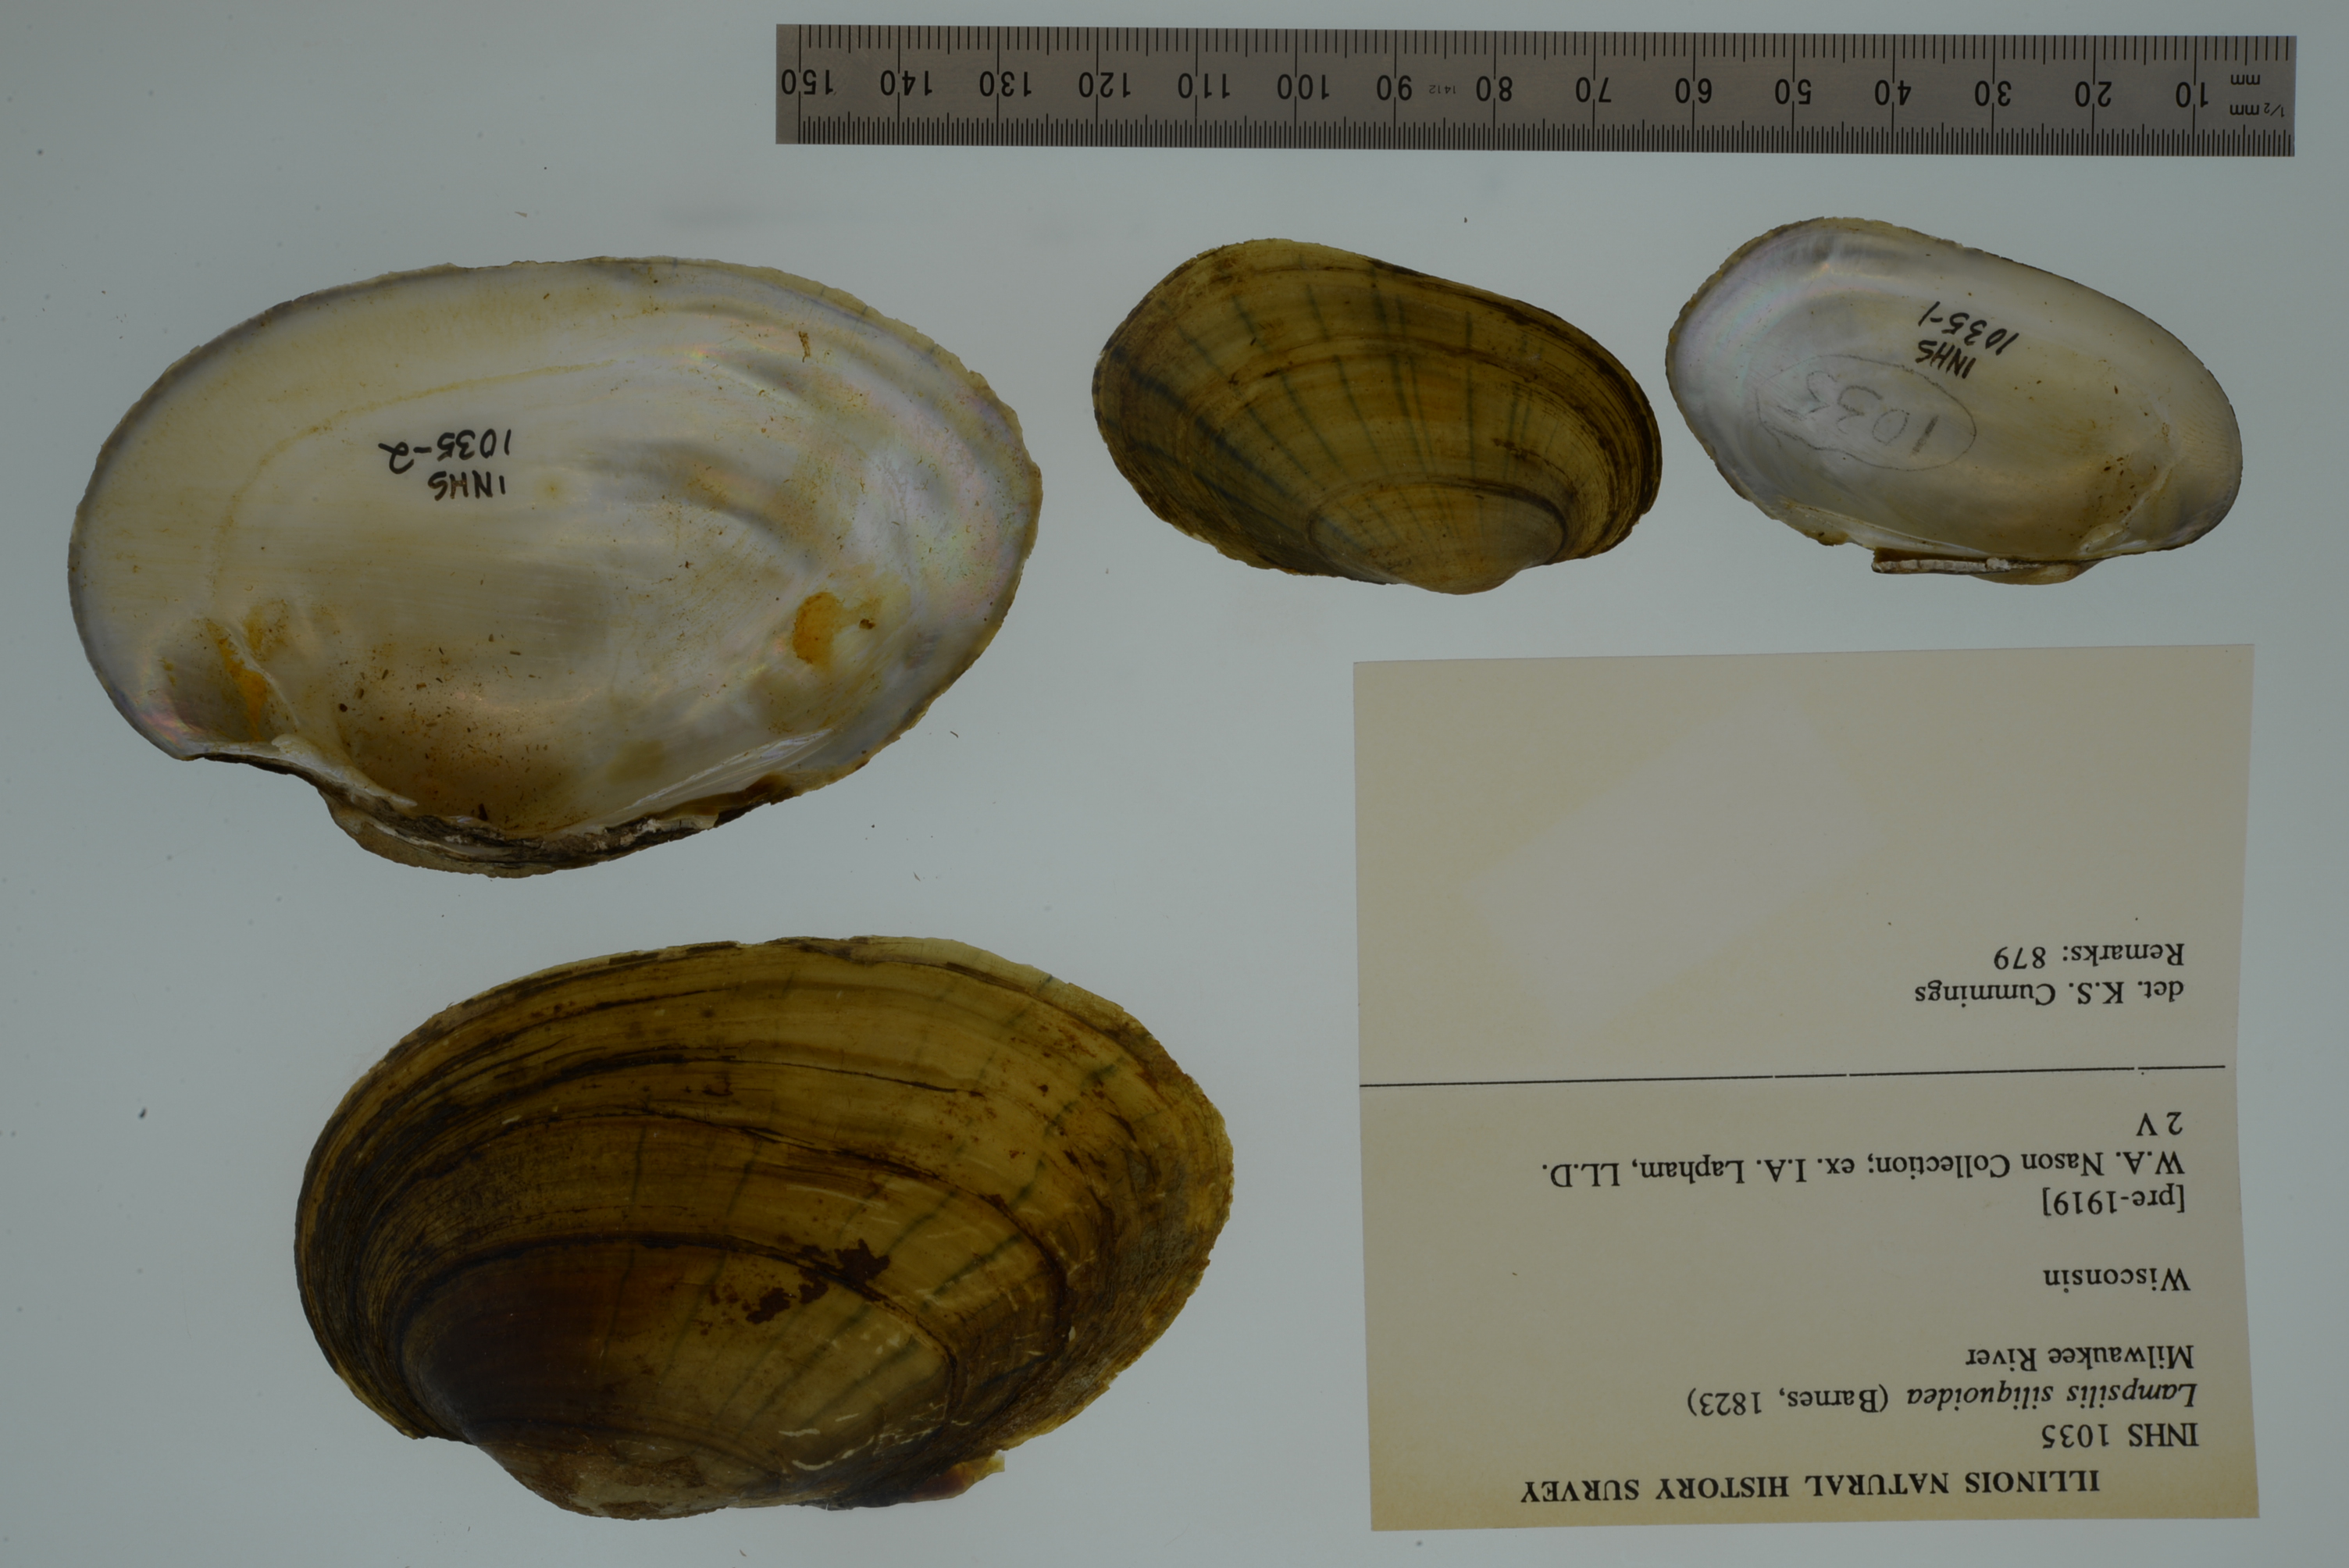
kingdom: Animalia
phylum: Mollusca
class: Bivalvia
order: Unionida
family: Unionidae
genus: Lampsilis
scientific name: Lampsilis siliquoidea
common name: Fatmucket
